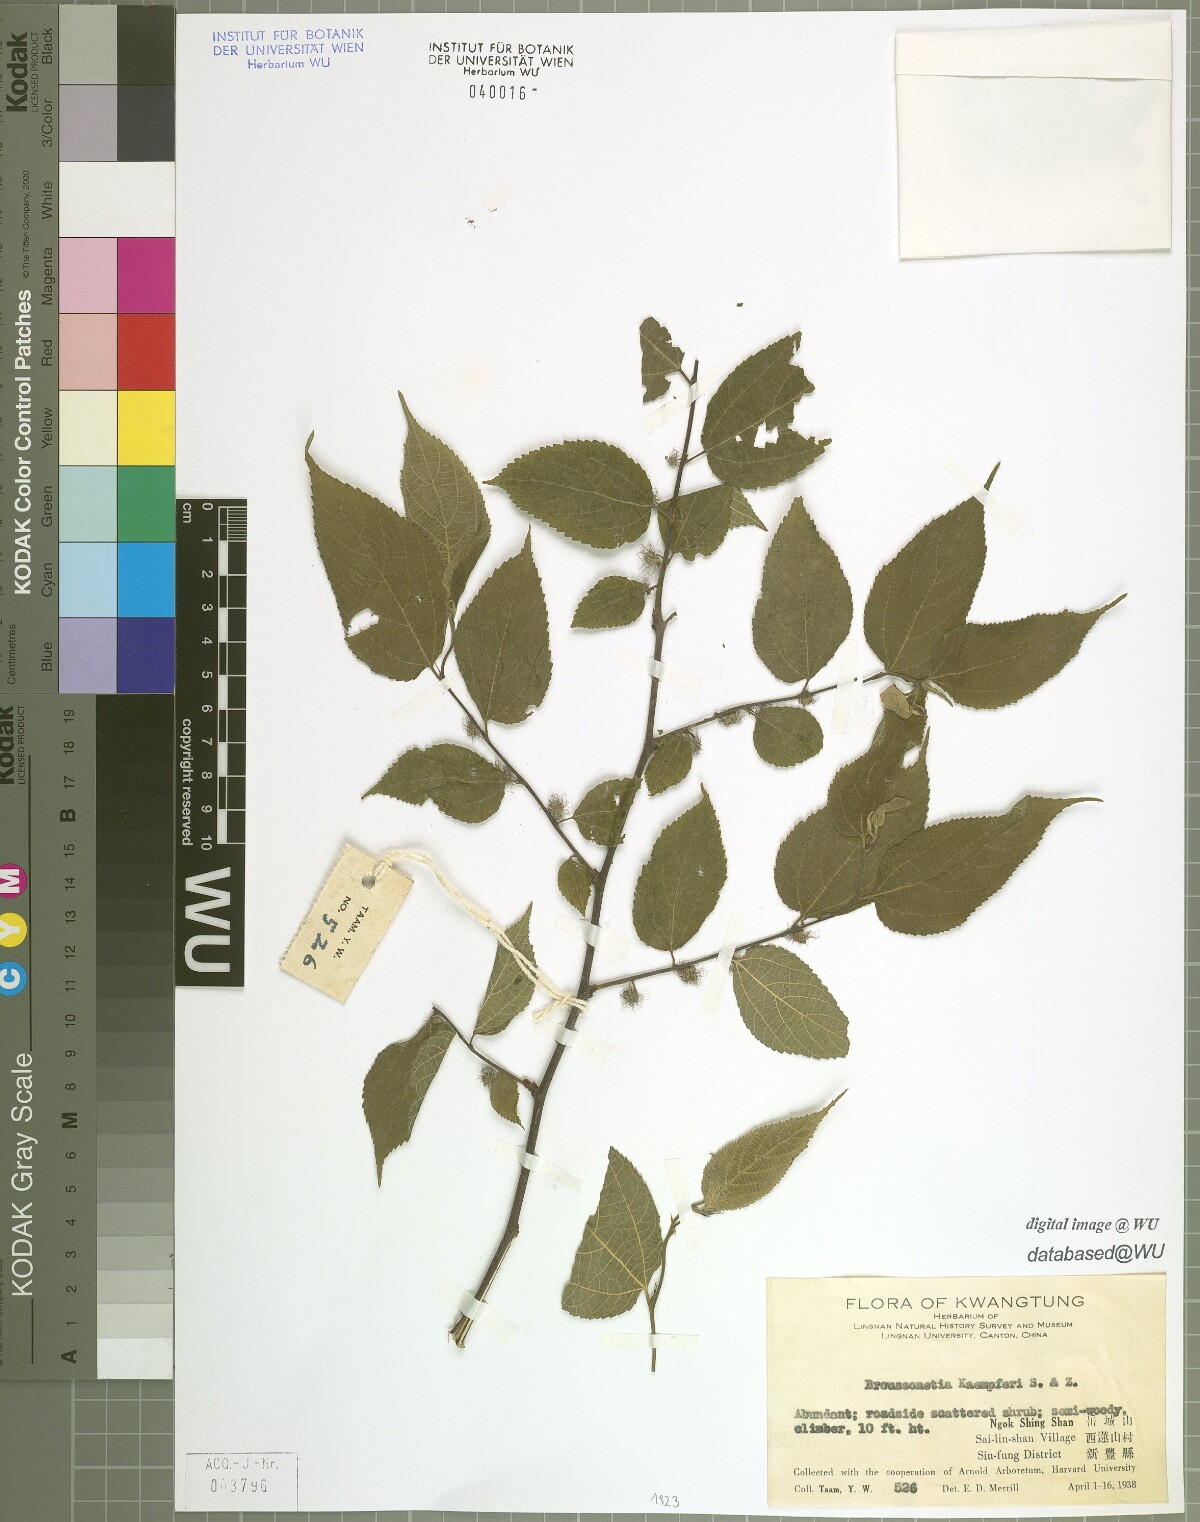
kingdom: Plantae
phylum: Tracheophyta
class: Magnoliopsida
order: Rosales
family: Moraceae
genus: Broussonetia
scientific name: Broussonetia kaempferi
